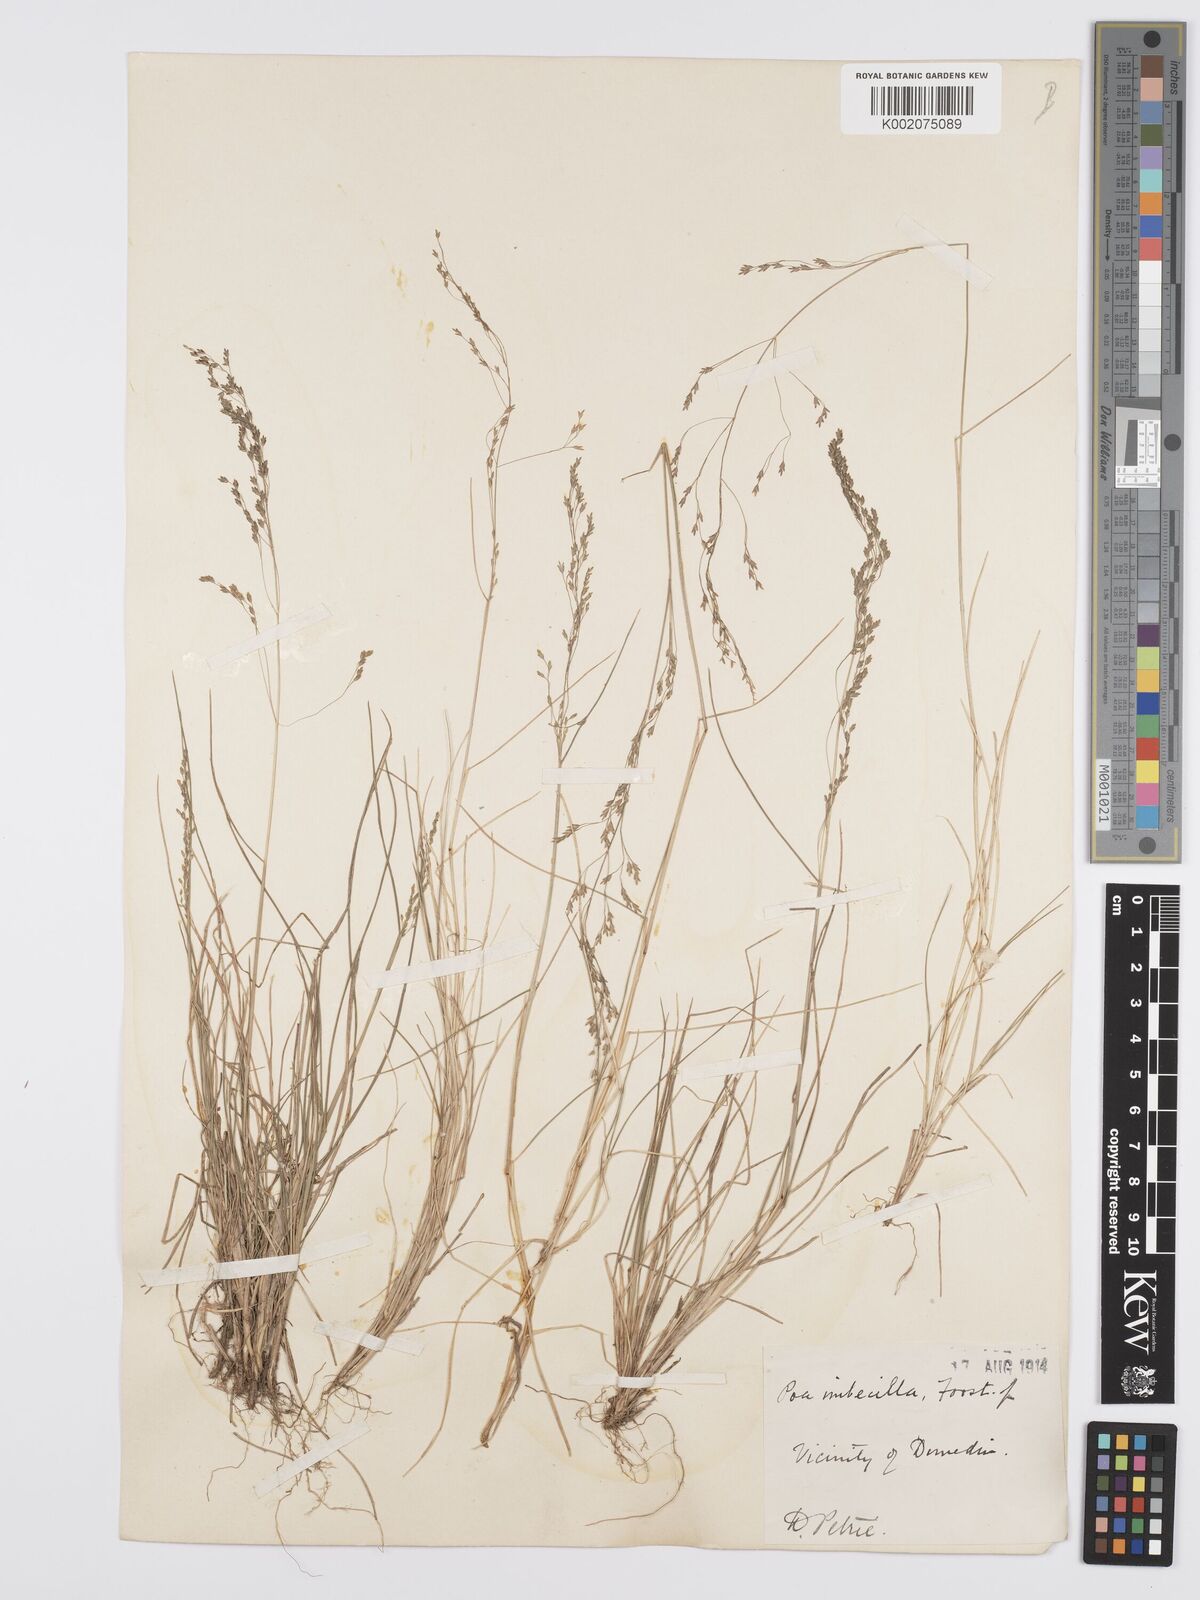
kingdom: Plantae
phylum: Tracheophyta
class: Liliopsida
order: Poales
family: Poaceae
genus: Poa
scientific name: Poa matthewsii
